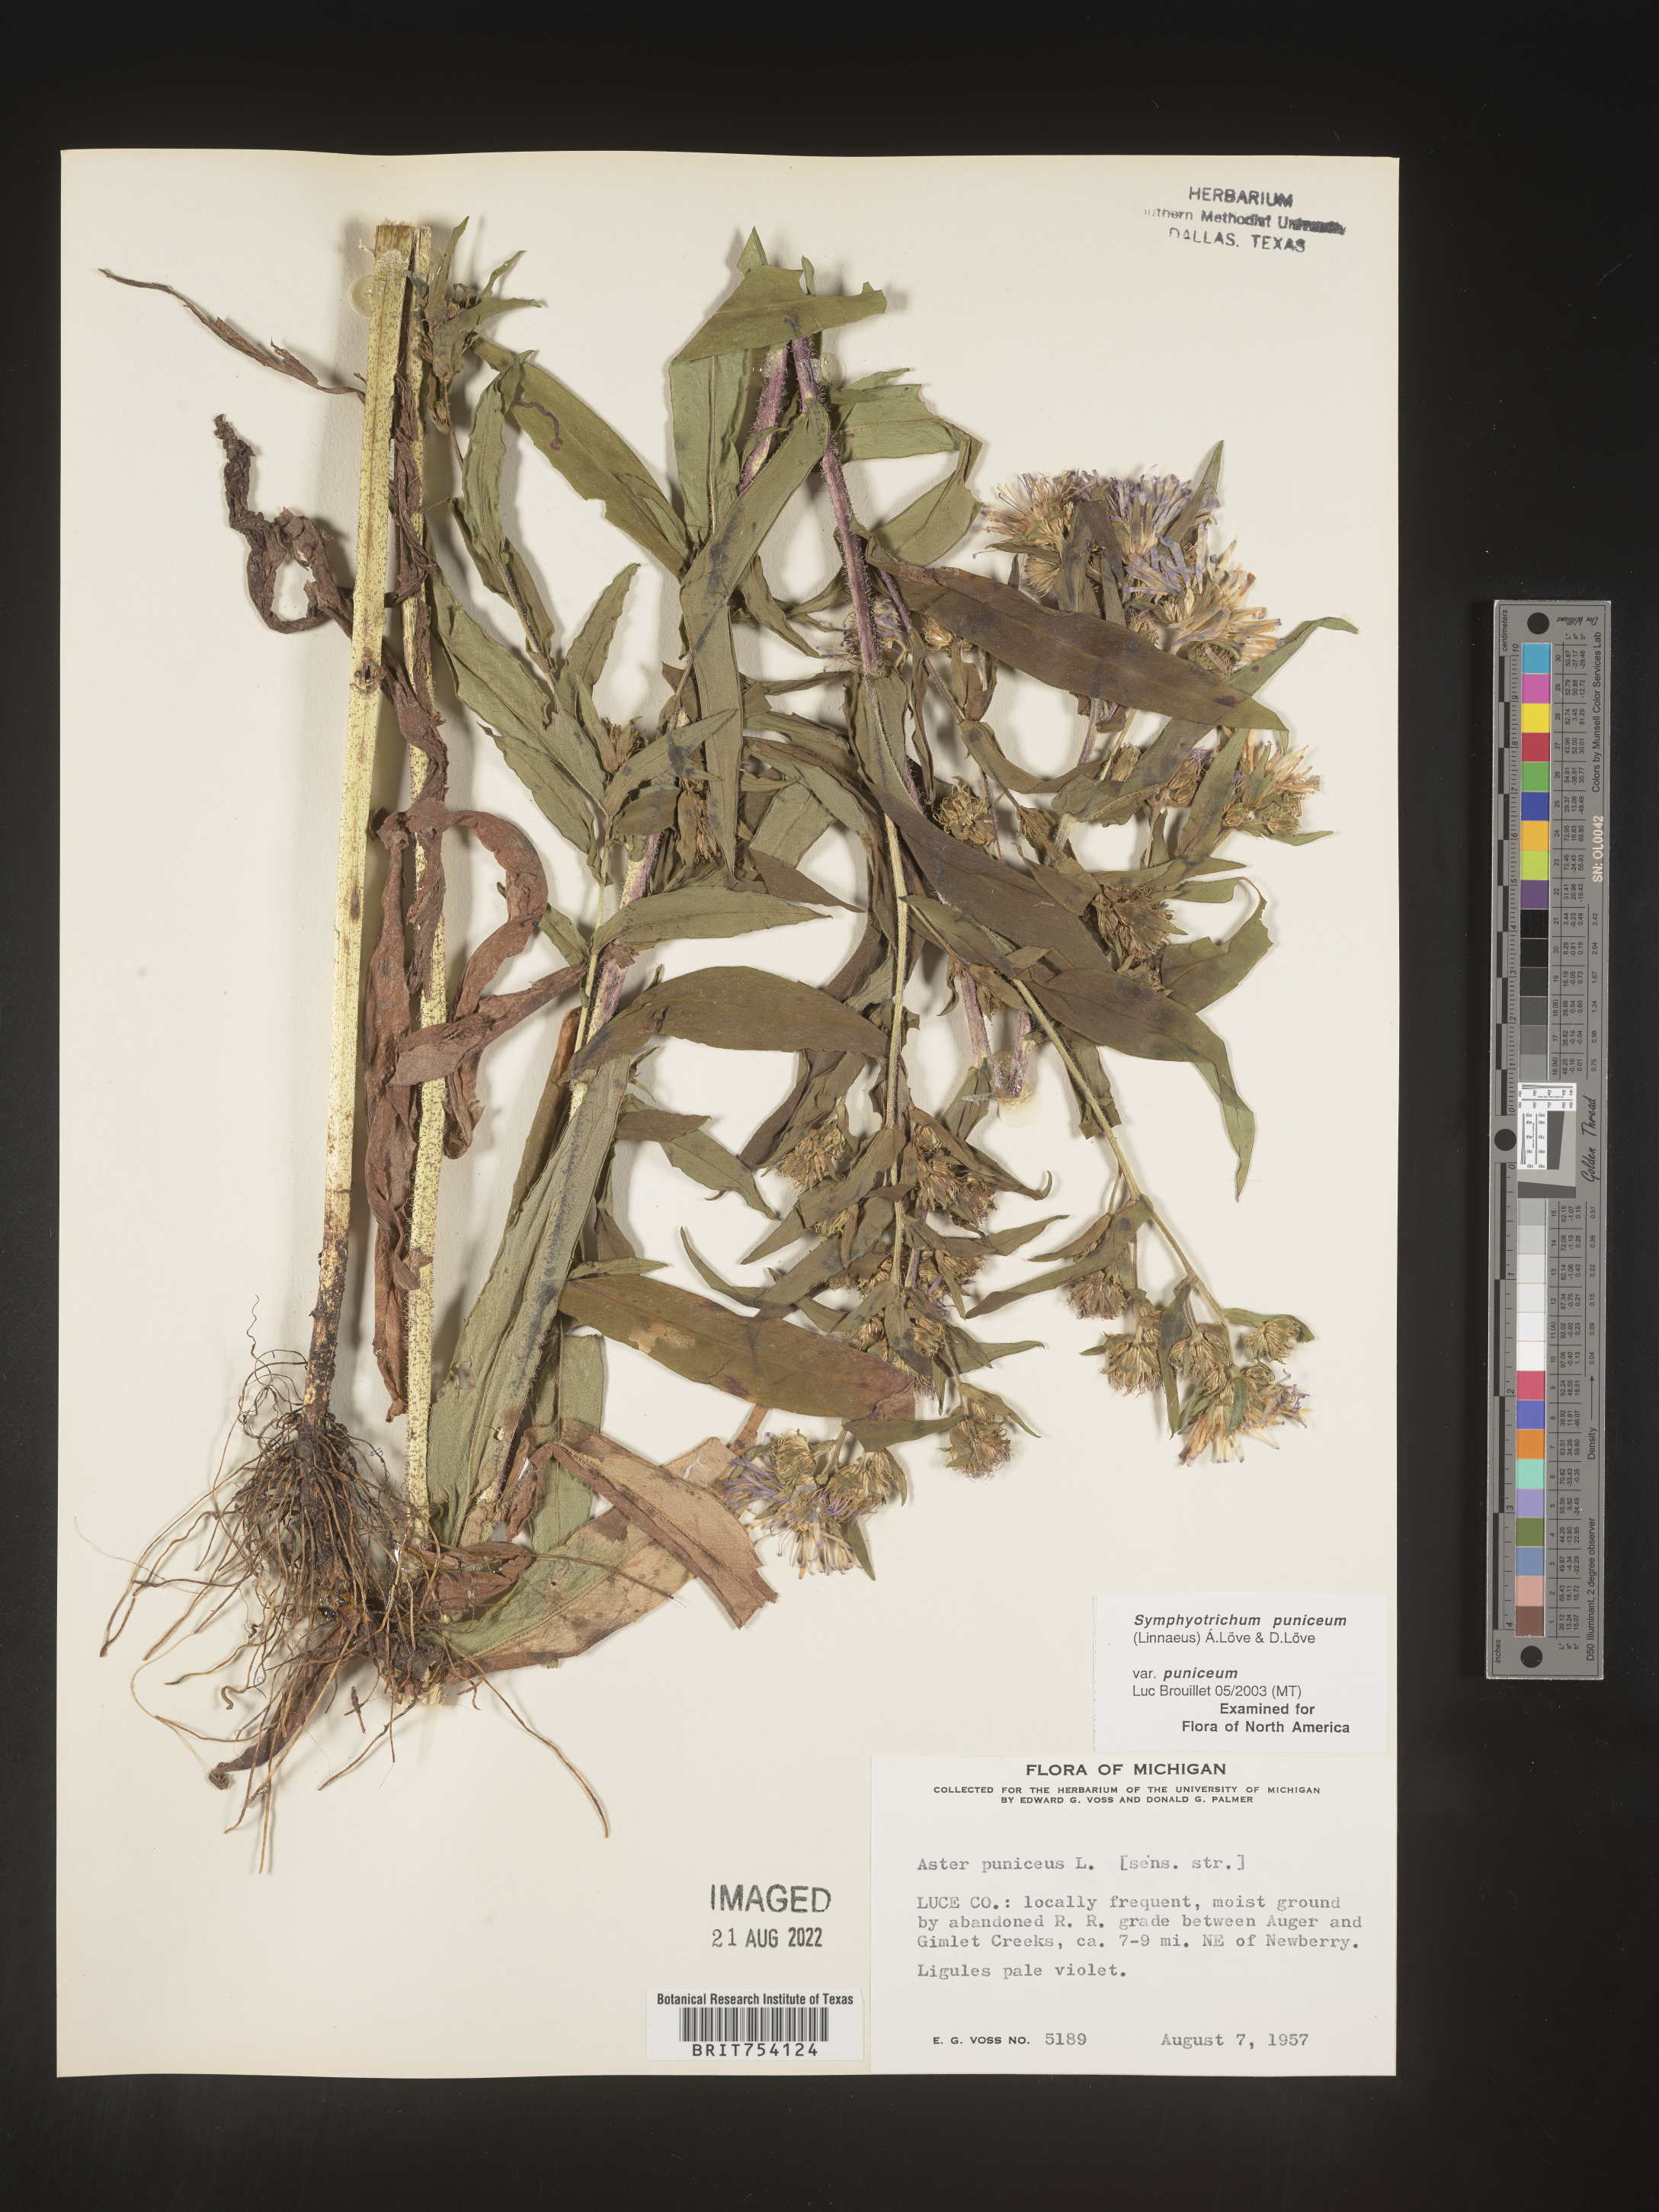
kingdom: Plantae
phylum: Tracheophyta
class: Magnoliopsida
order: Asterales
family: Asteraceae
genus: Symphyotrichum
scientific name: Symphyotrichum puniceum
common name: Bog aster
